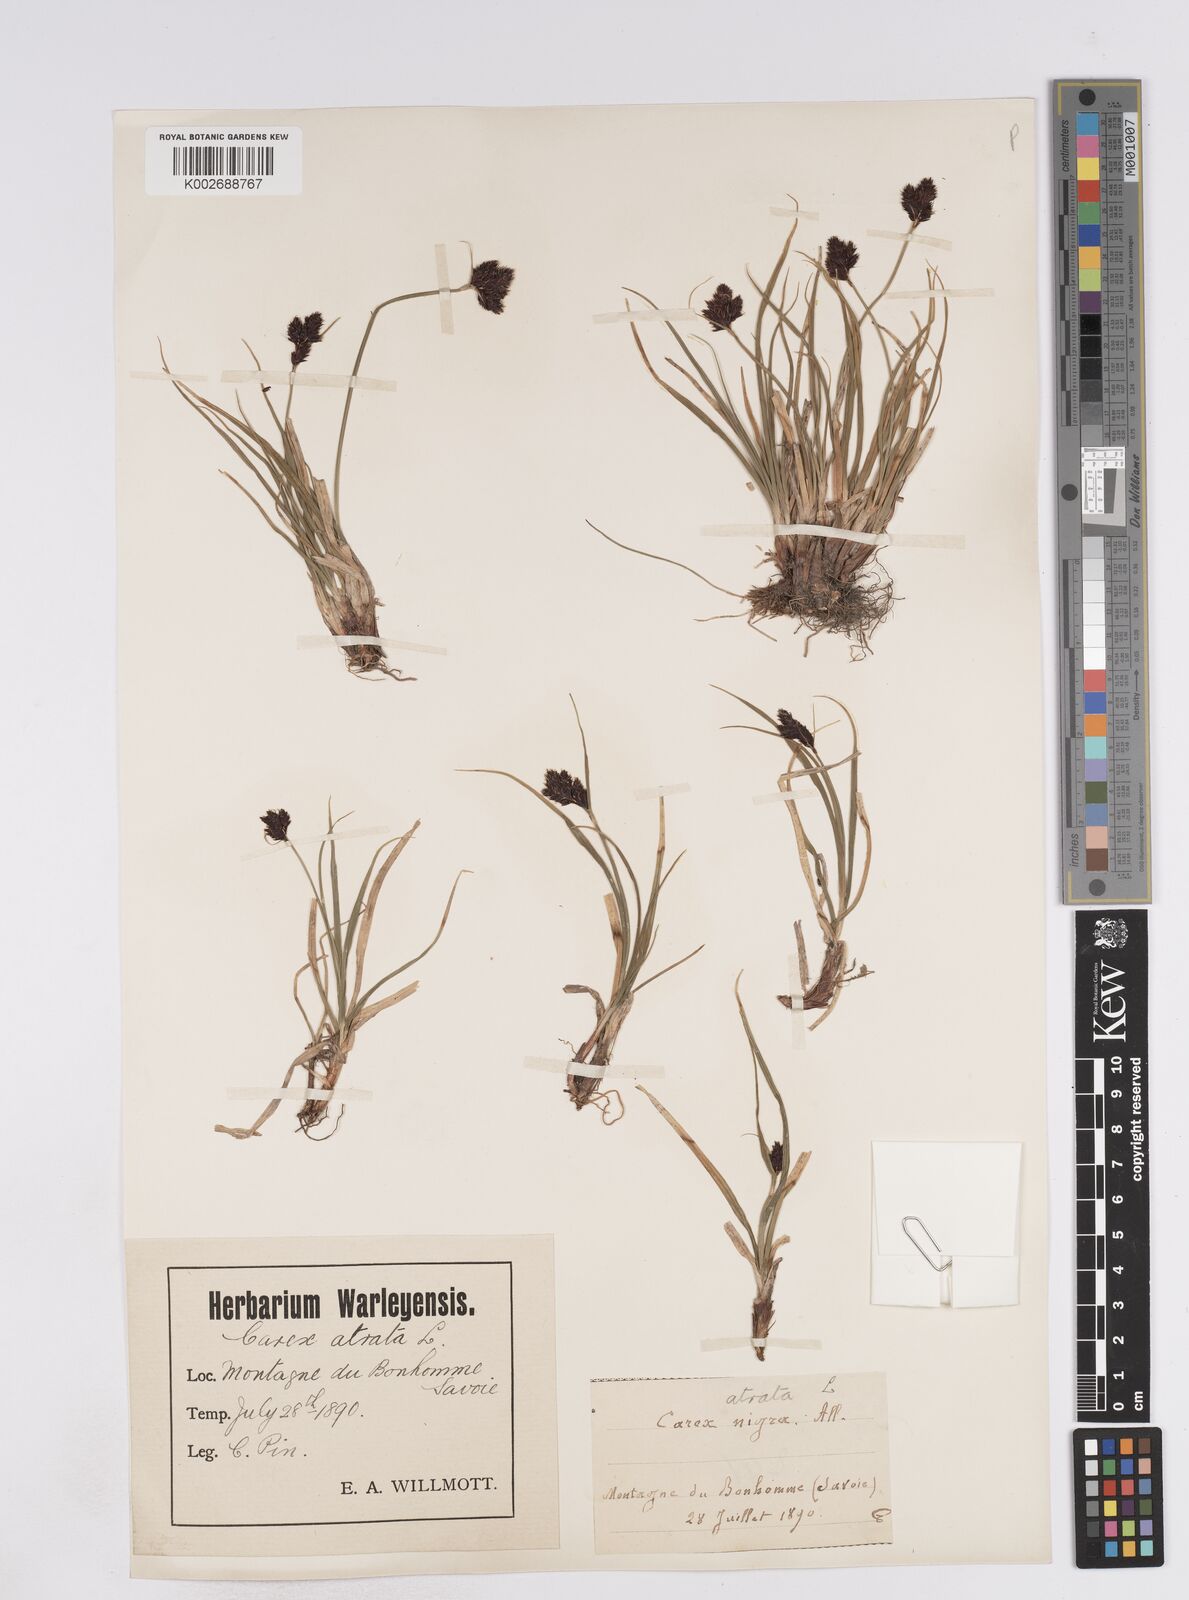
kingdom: Plantae
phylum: Tracheophyta
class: Liliopsida
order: Poales
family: Cyperaceae
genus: Carex
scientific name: Carex parviflora
